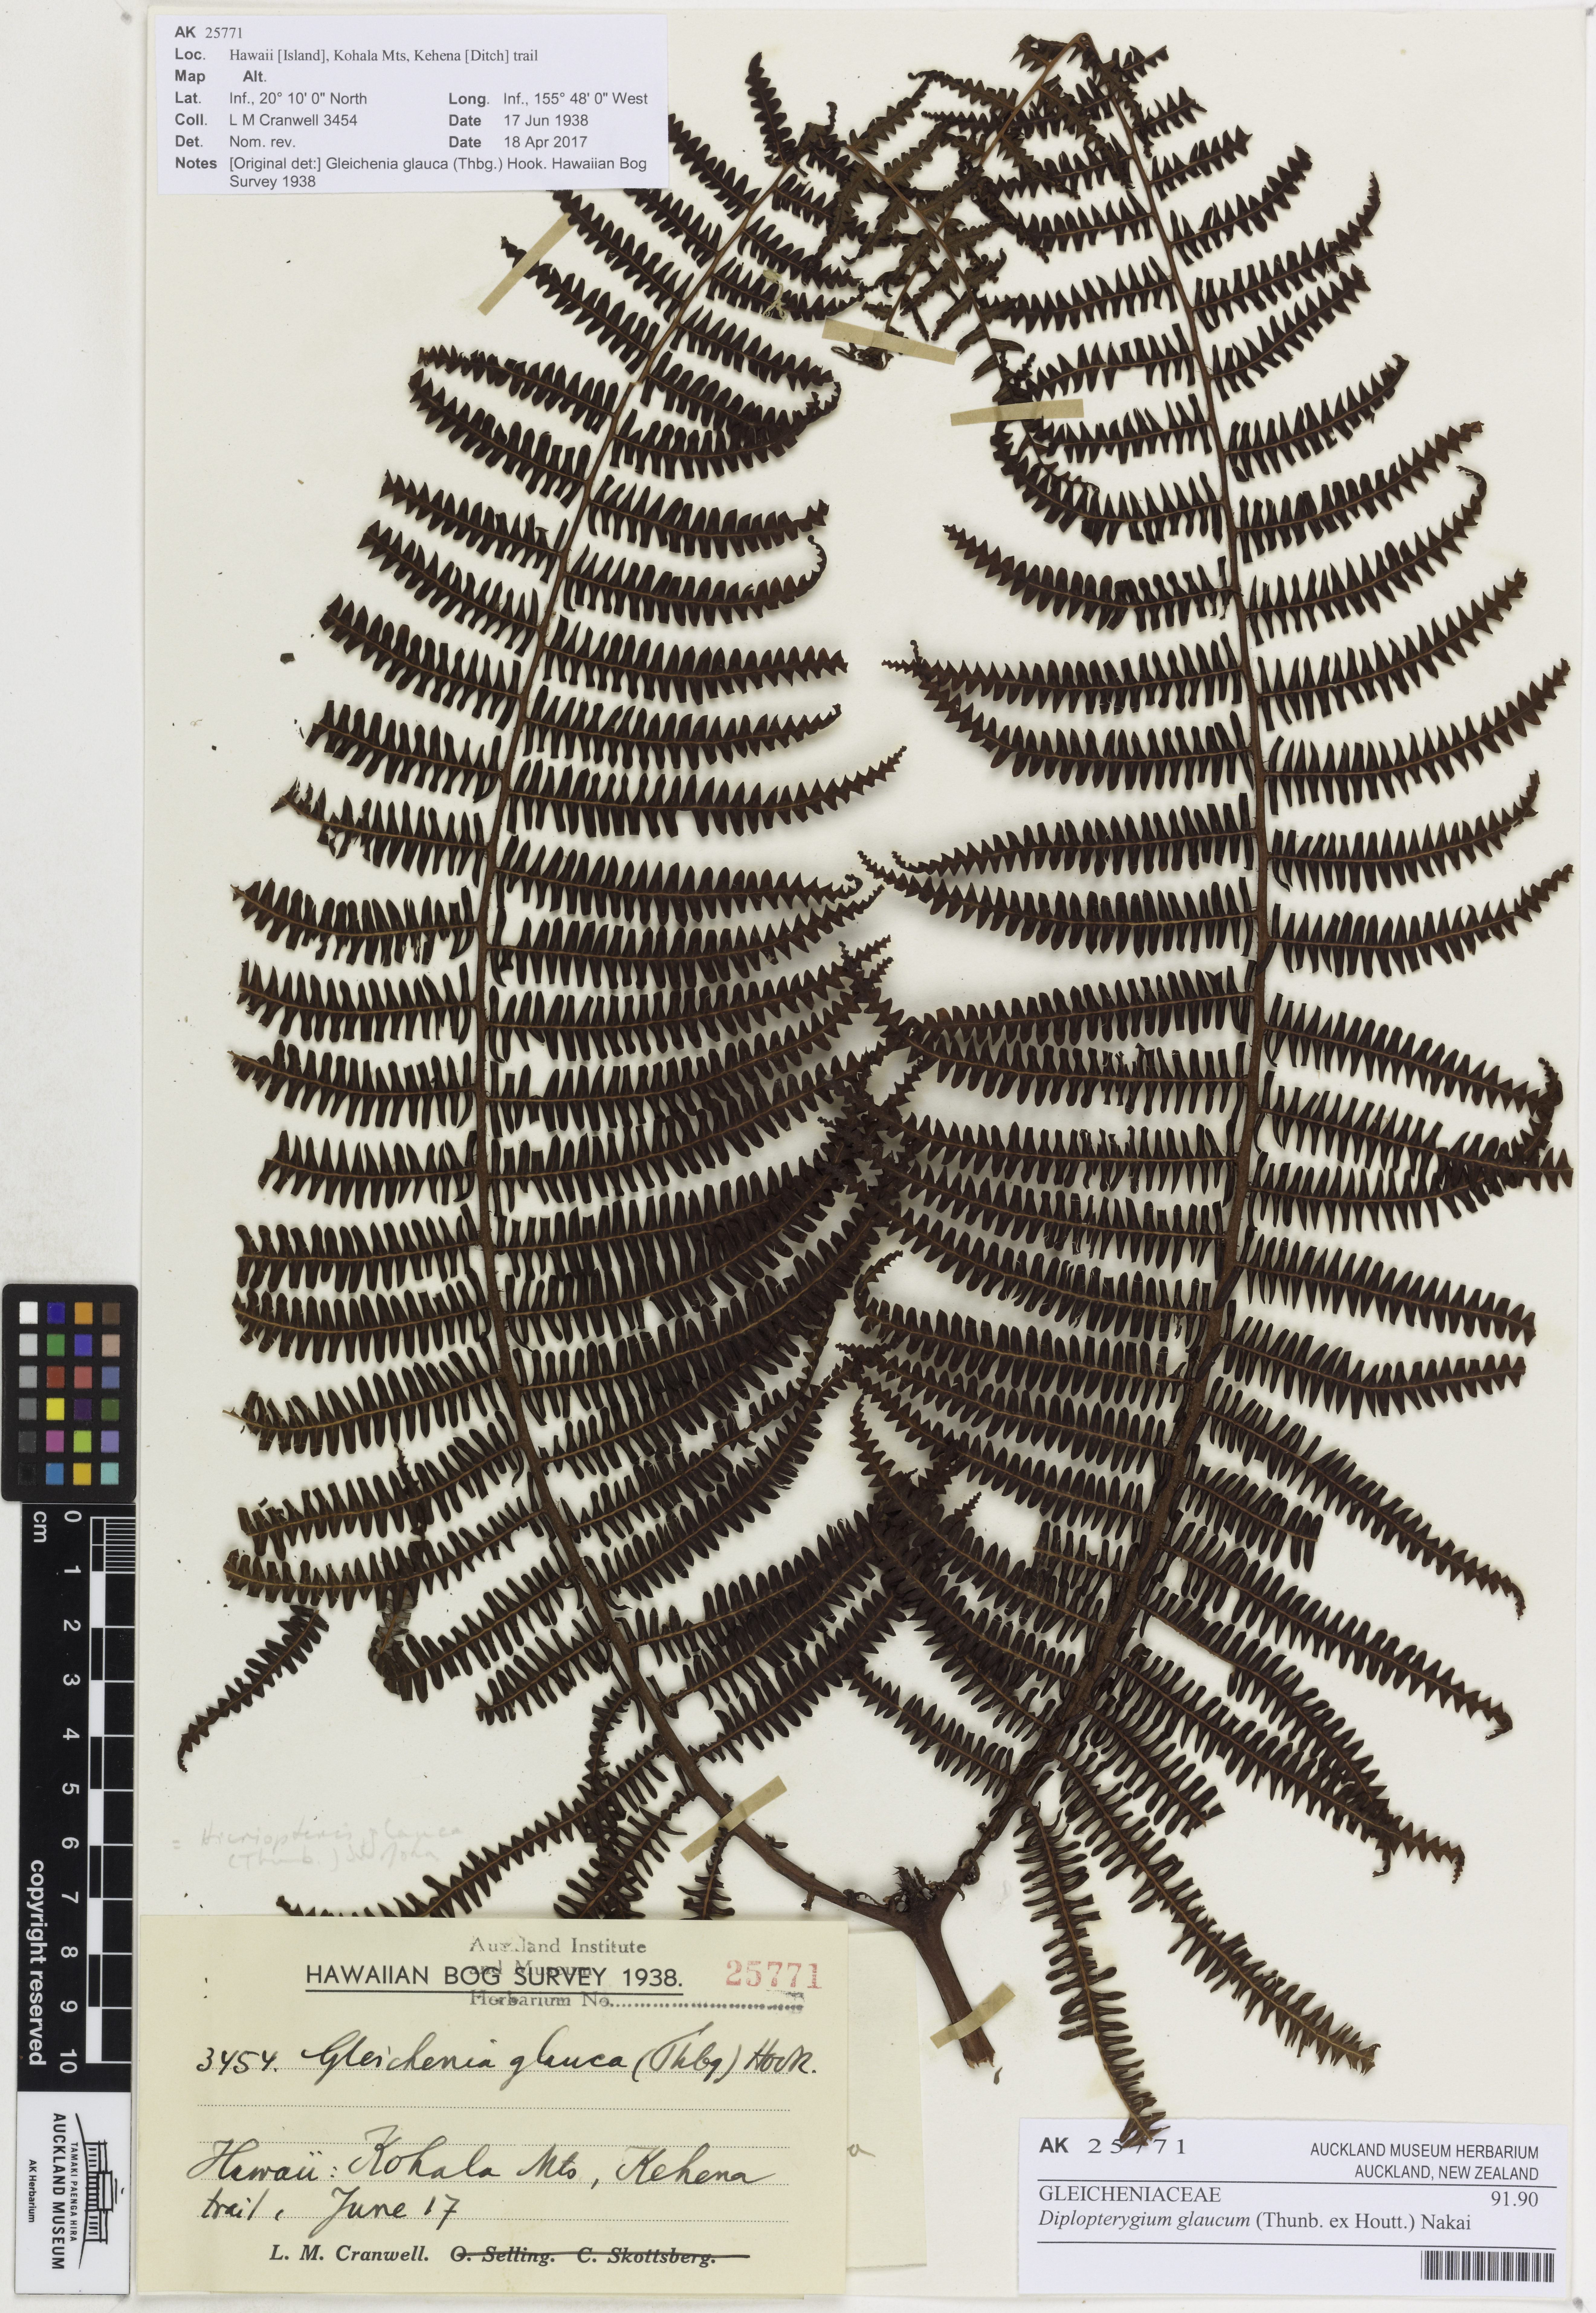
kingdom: Plantae
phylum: Tracheophyta
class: Polypodiopsida
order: Gleicheniales
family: Gleicheniaceae
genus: Diplopterygium
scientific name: Diplopterygium glaucum
